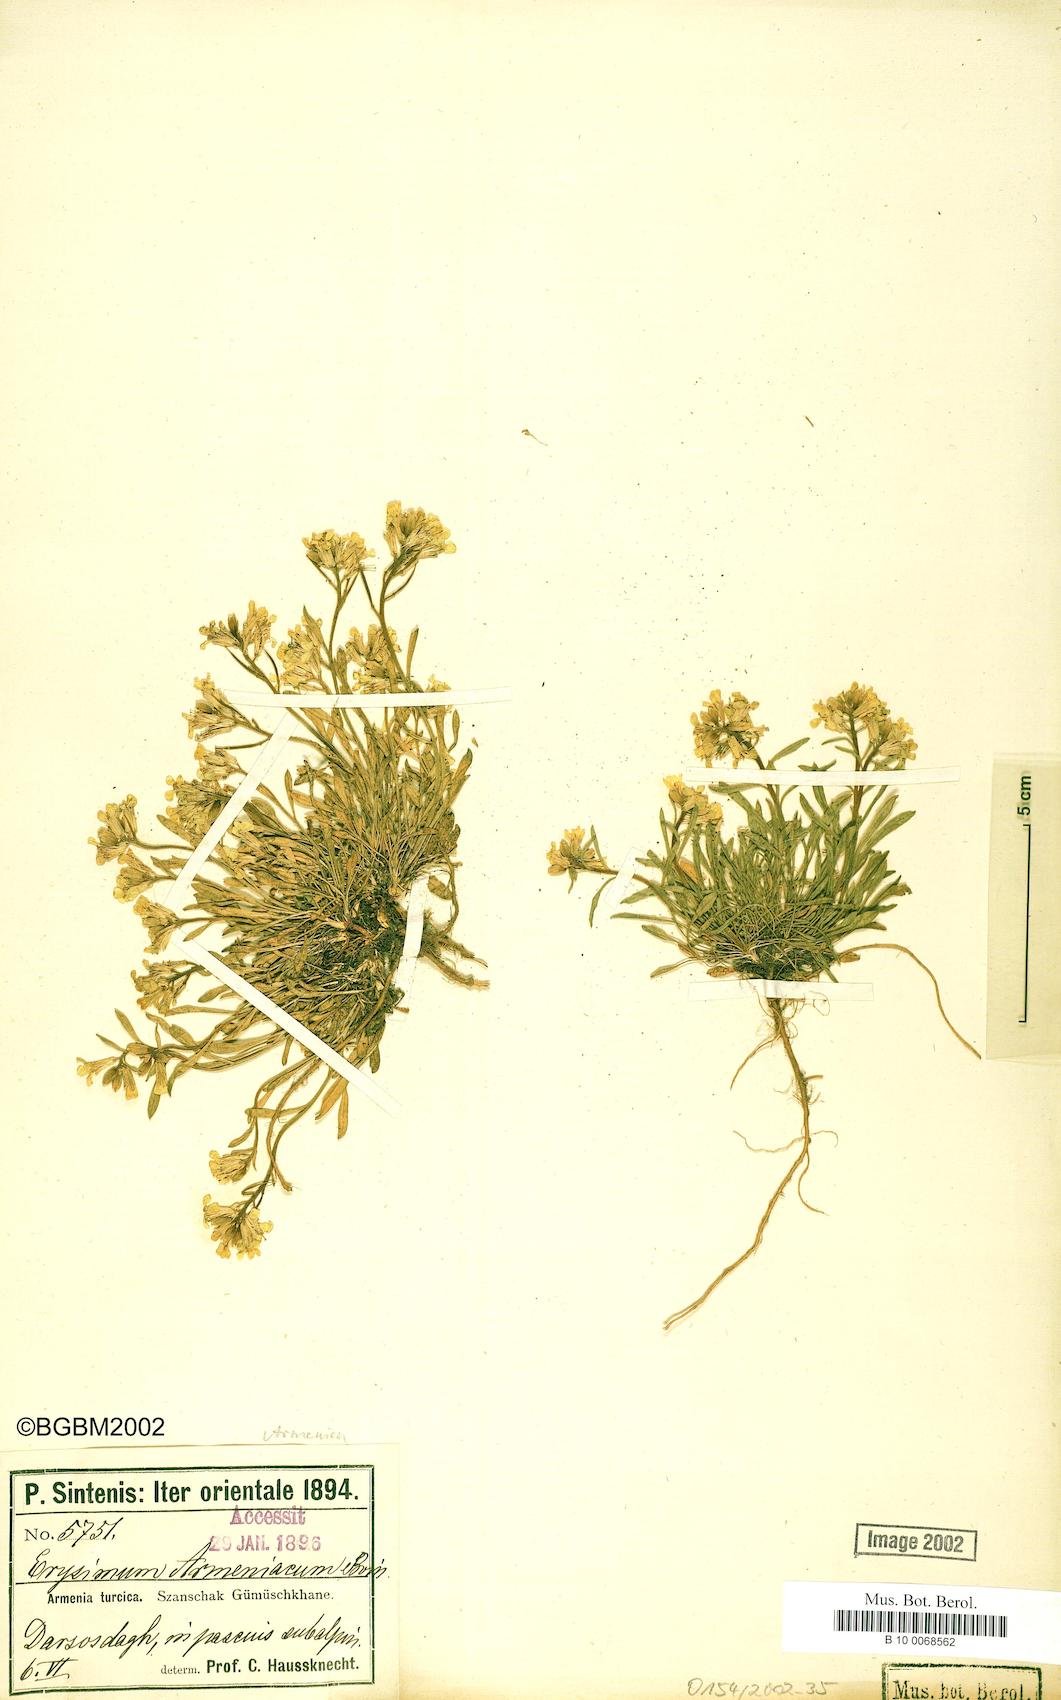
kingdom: Plantae
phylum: Tracheophyta
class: Magnoliopsida
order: Brassicales
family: Brassicaceae
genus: Erysimum
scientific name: Erysimum gelidum
